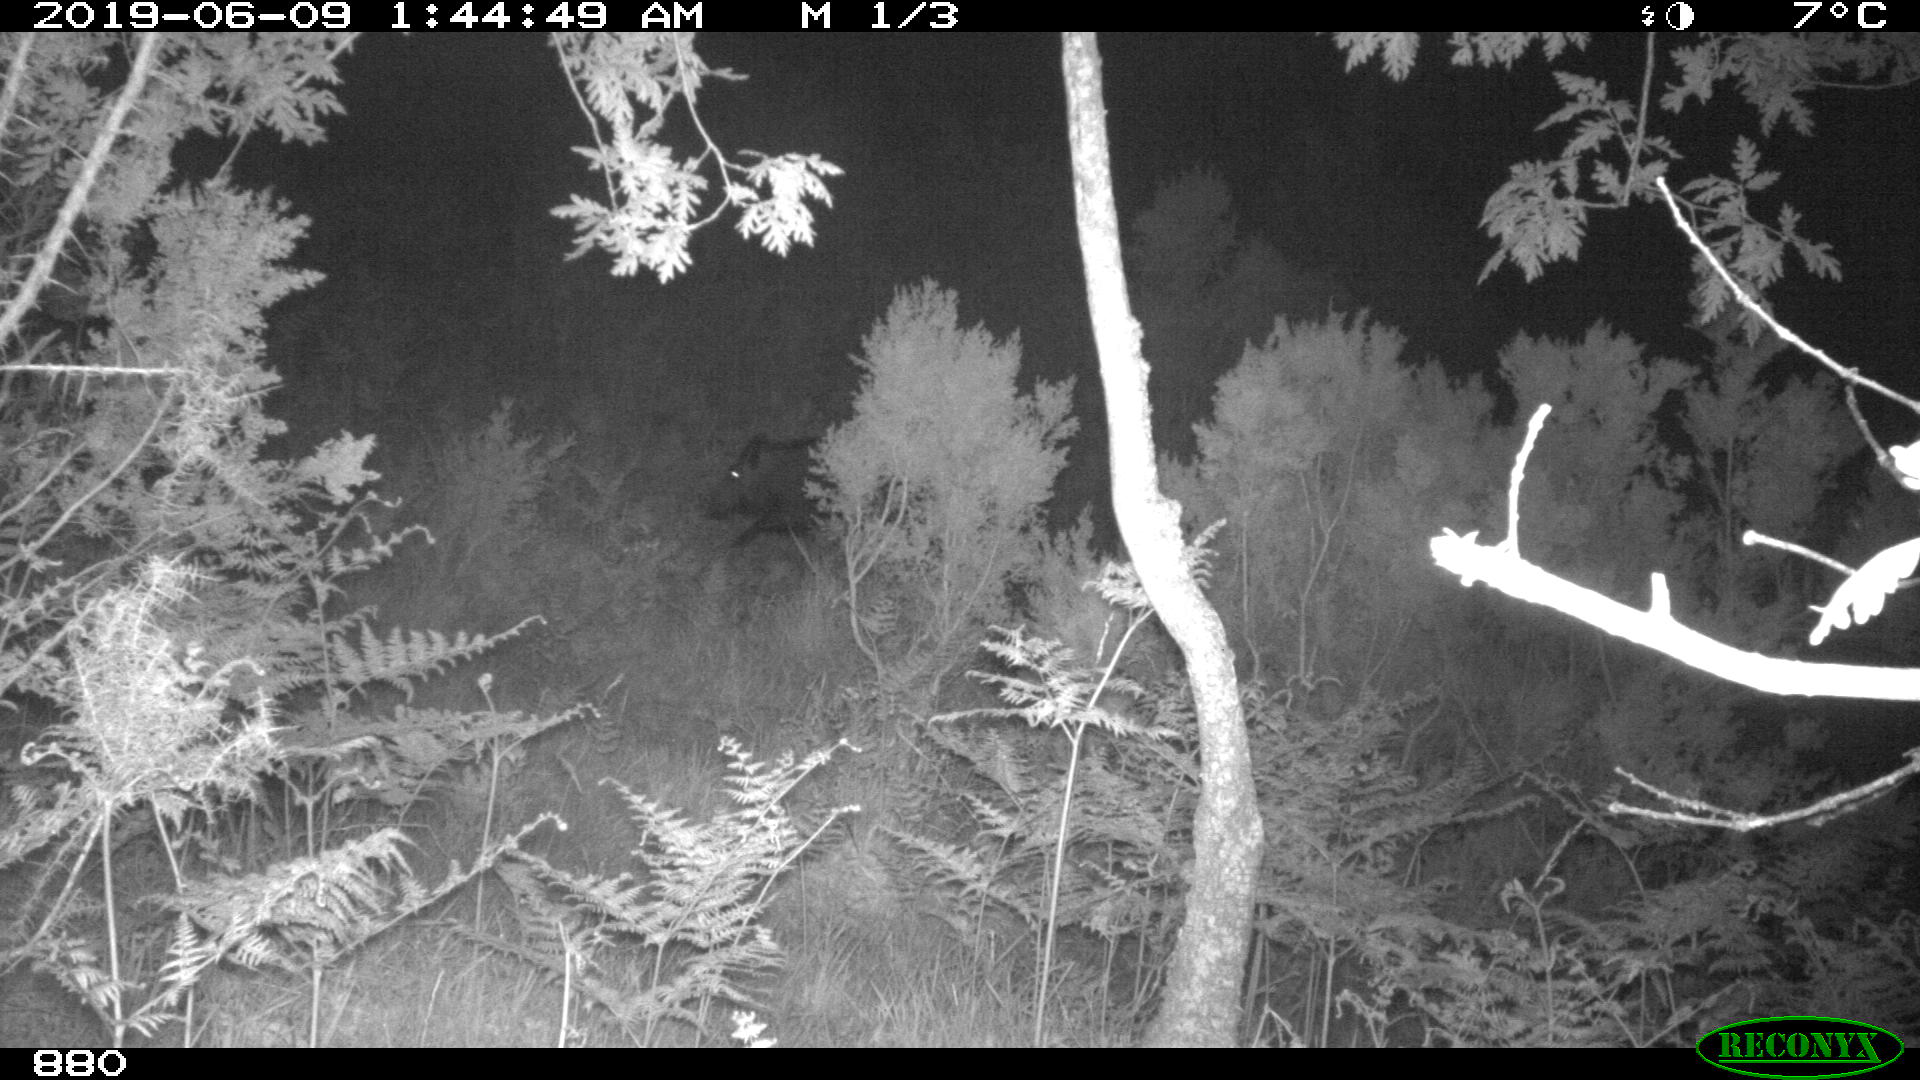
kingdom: Animalia
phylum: Chordata
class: Mammalia
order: Artiodactyla
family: Suidae
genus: Sus
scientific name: Sus scrofa
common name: Wild boar
